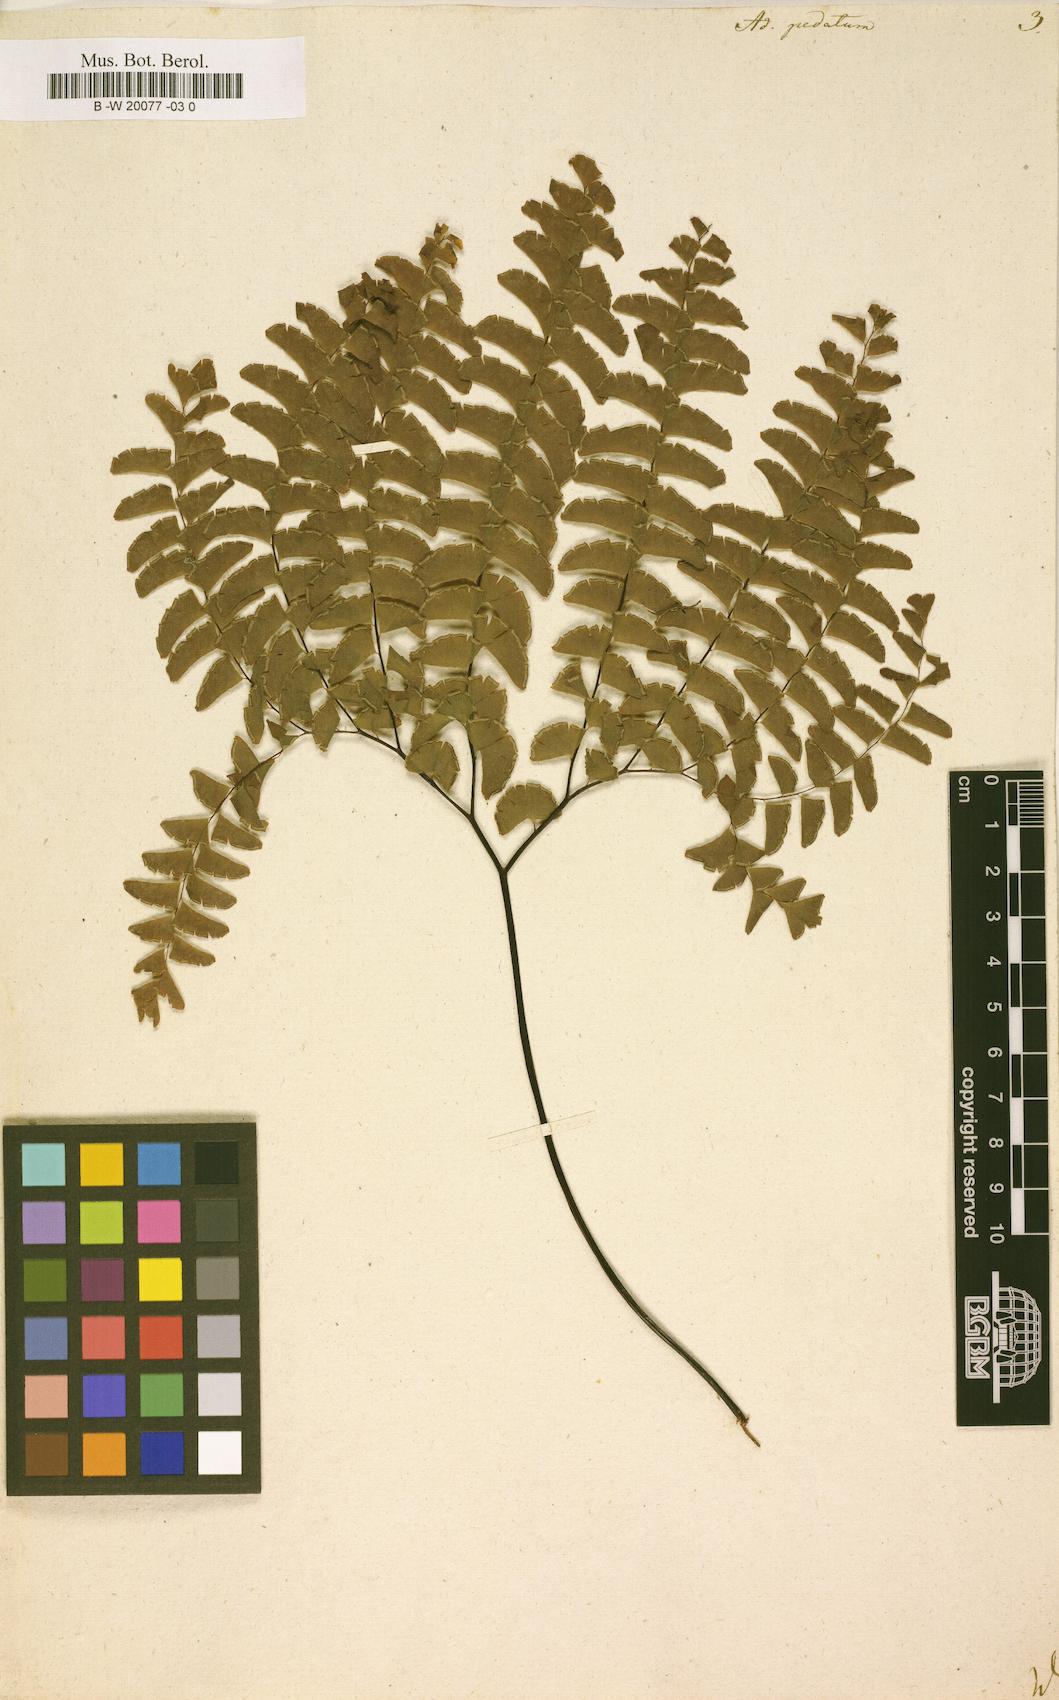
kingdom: Plantae
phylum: Tracheophyta
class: Polypodiopsida
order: Polypodiales
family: Pteridaceae
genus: Adiantum
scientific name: Adiantum pedatum
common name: Five-finger fern
